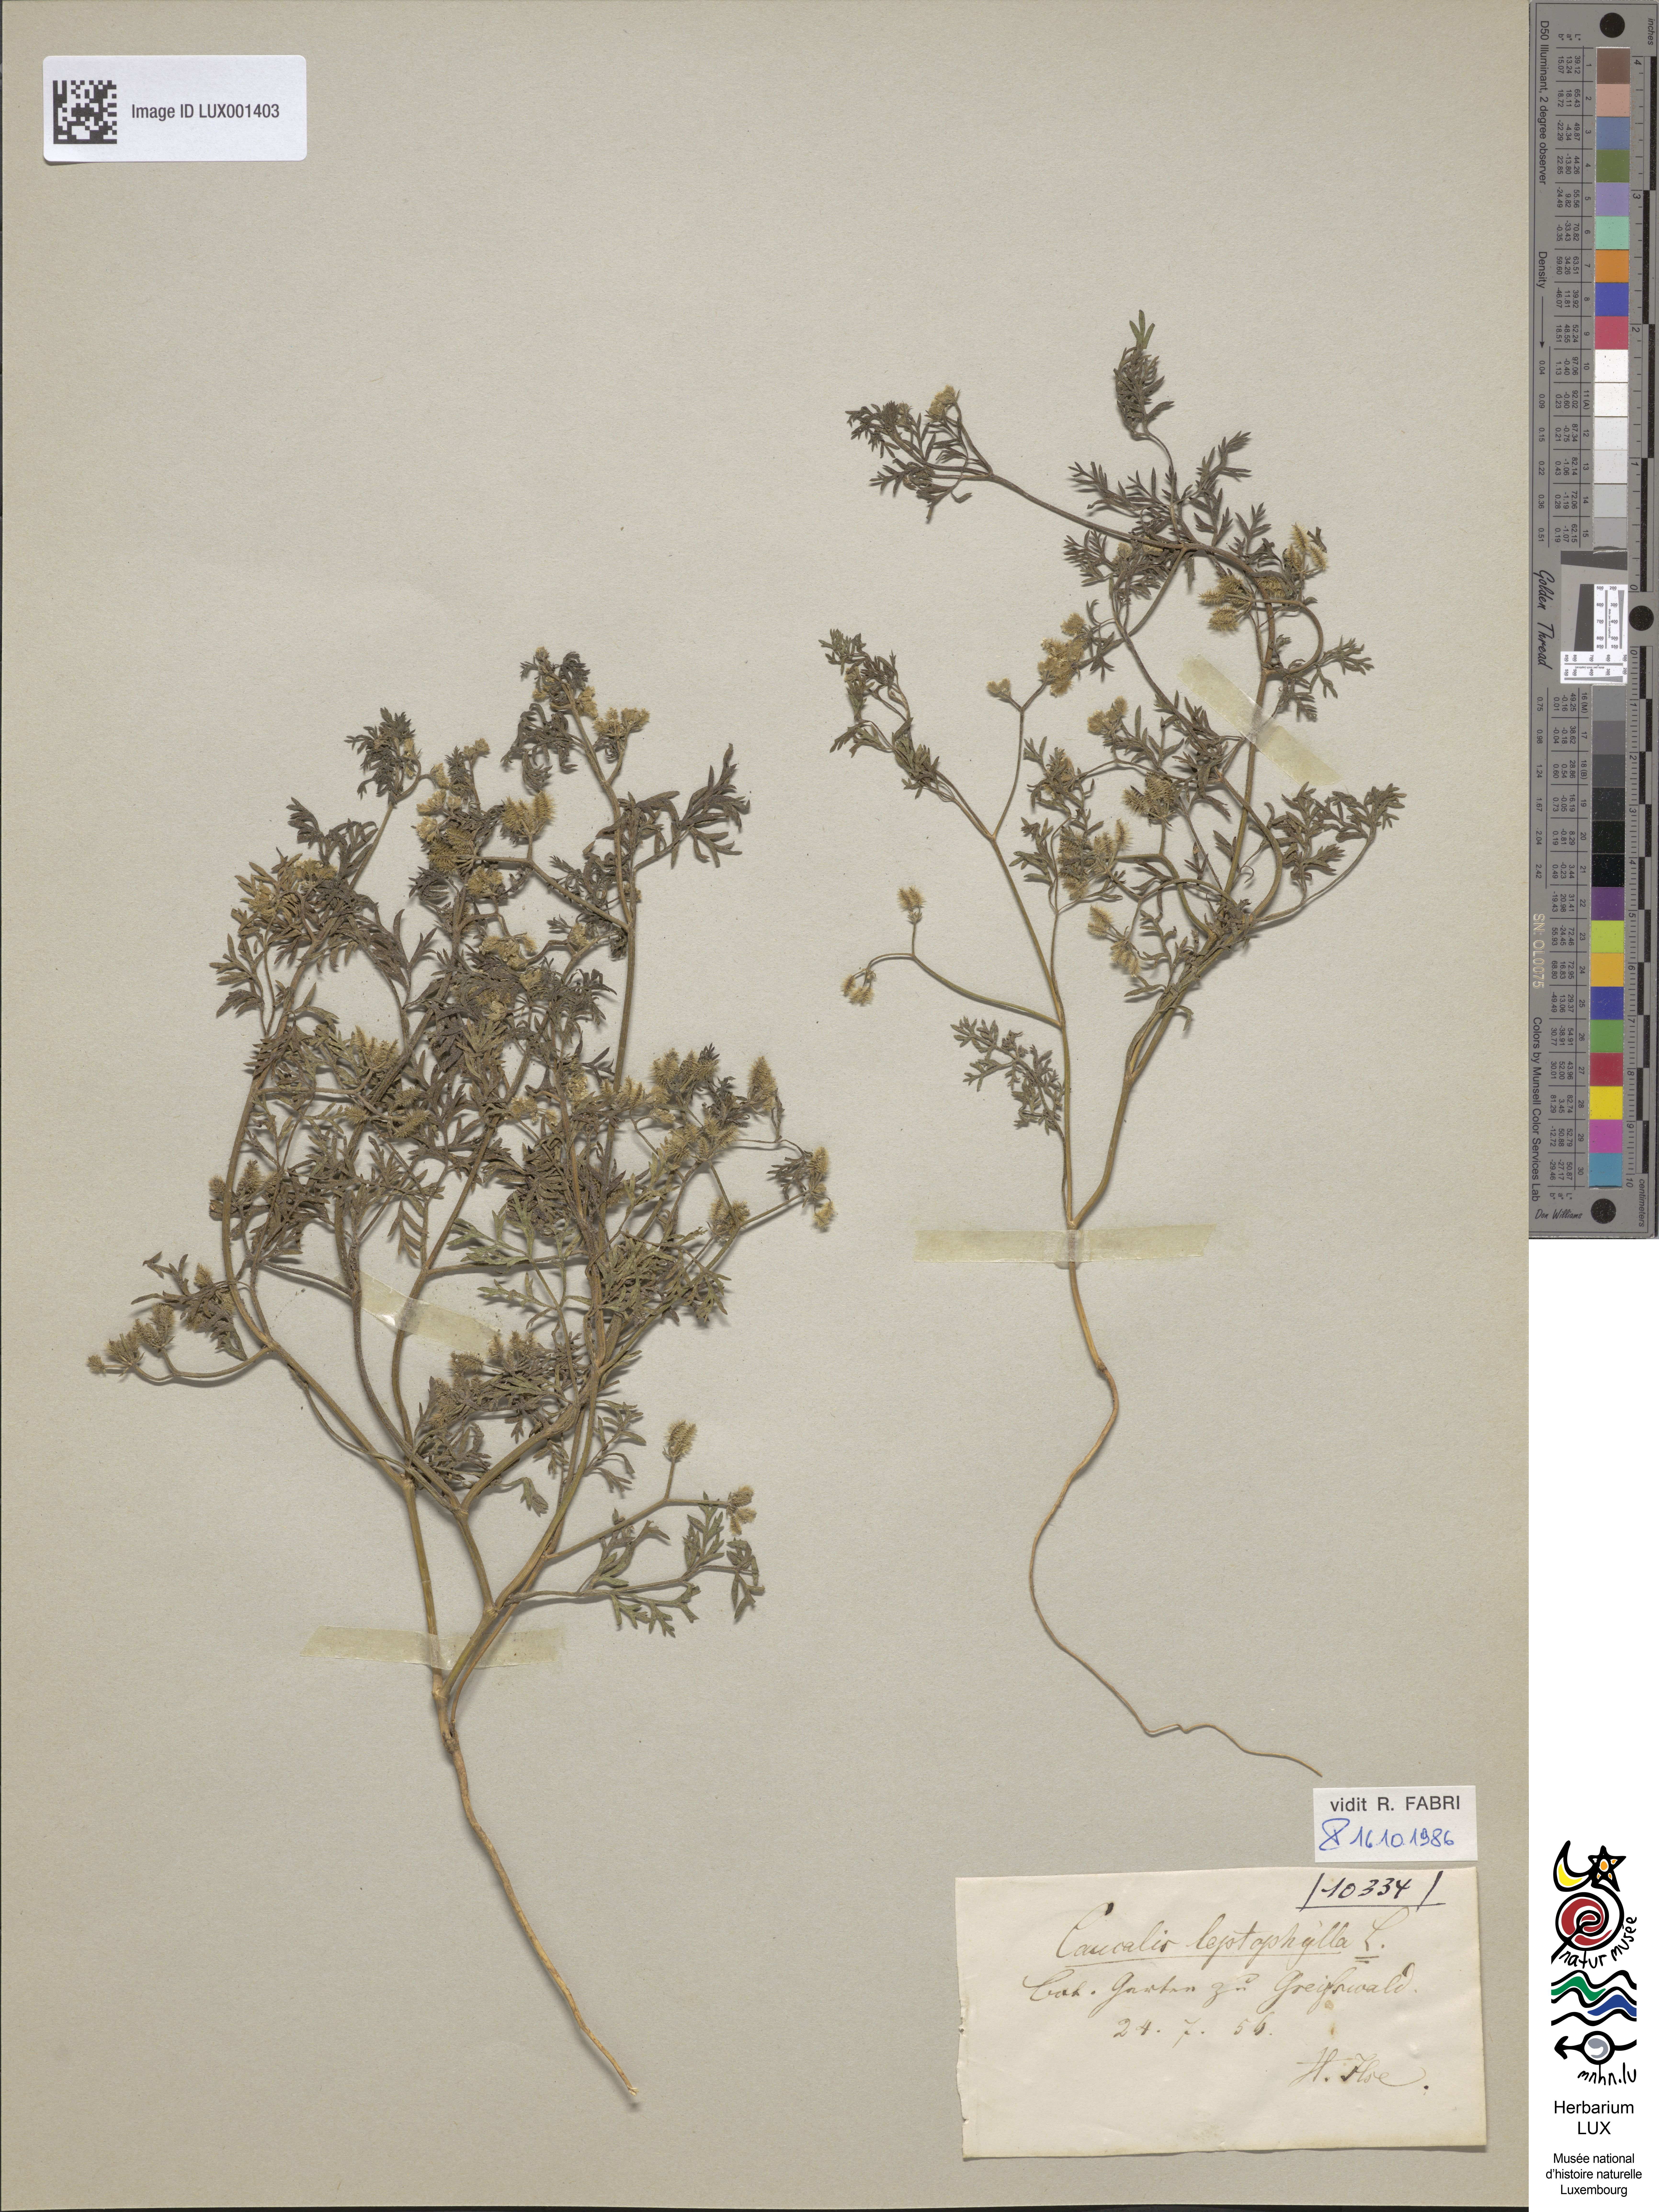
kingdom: Plantae
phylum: Tracheophyta
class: Magnoliopsida
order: Apiales
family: Apiaceae
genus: Torilis
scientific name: Torilis leptophylla
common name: Bristlefruit hedgeparsley
